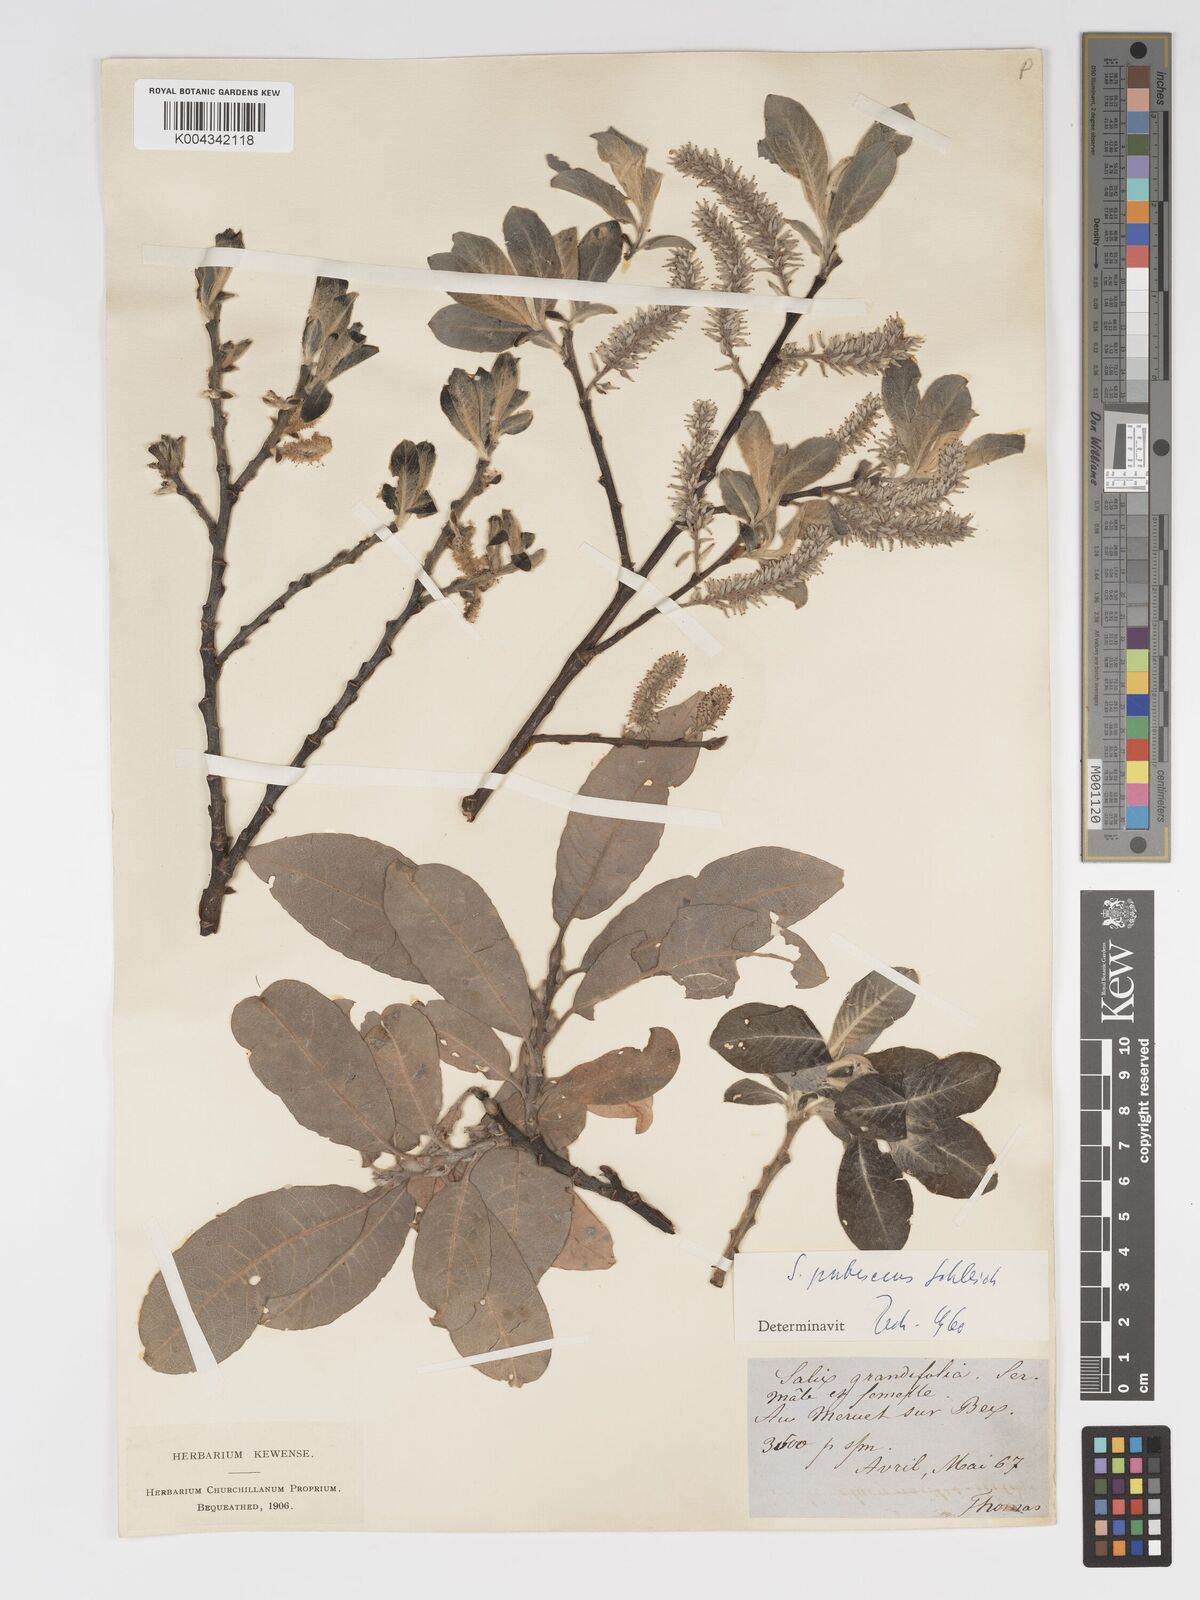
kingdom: Plantae
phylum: Tracheophyta
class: Magnoliopsida
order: Malpighiales
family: Salicaceae
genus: Salix
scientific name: Salix laggeri
